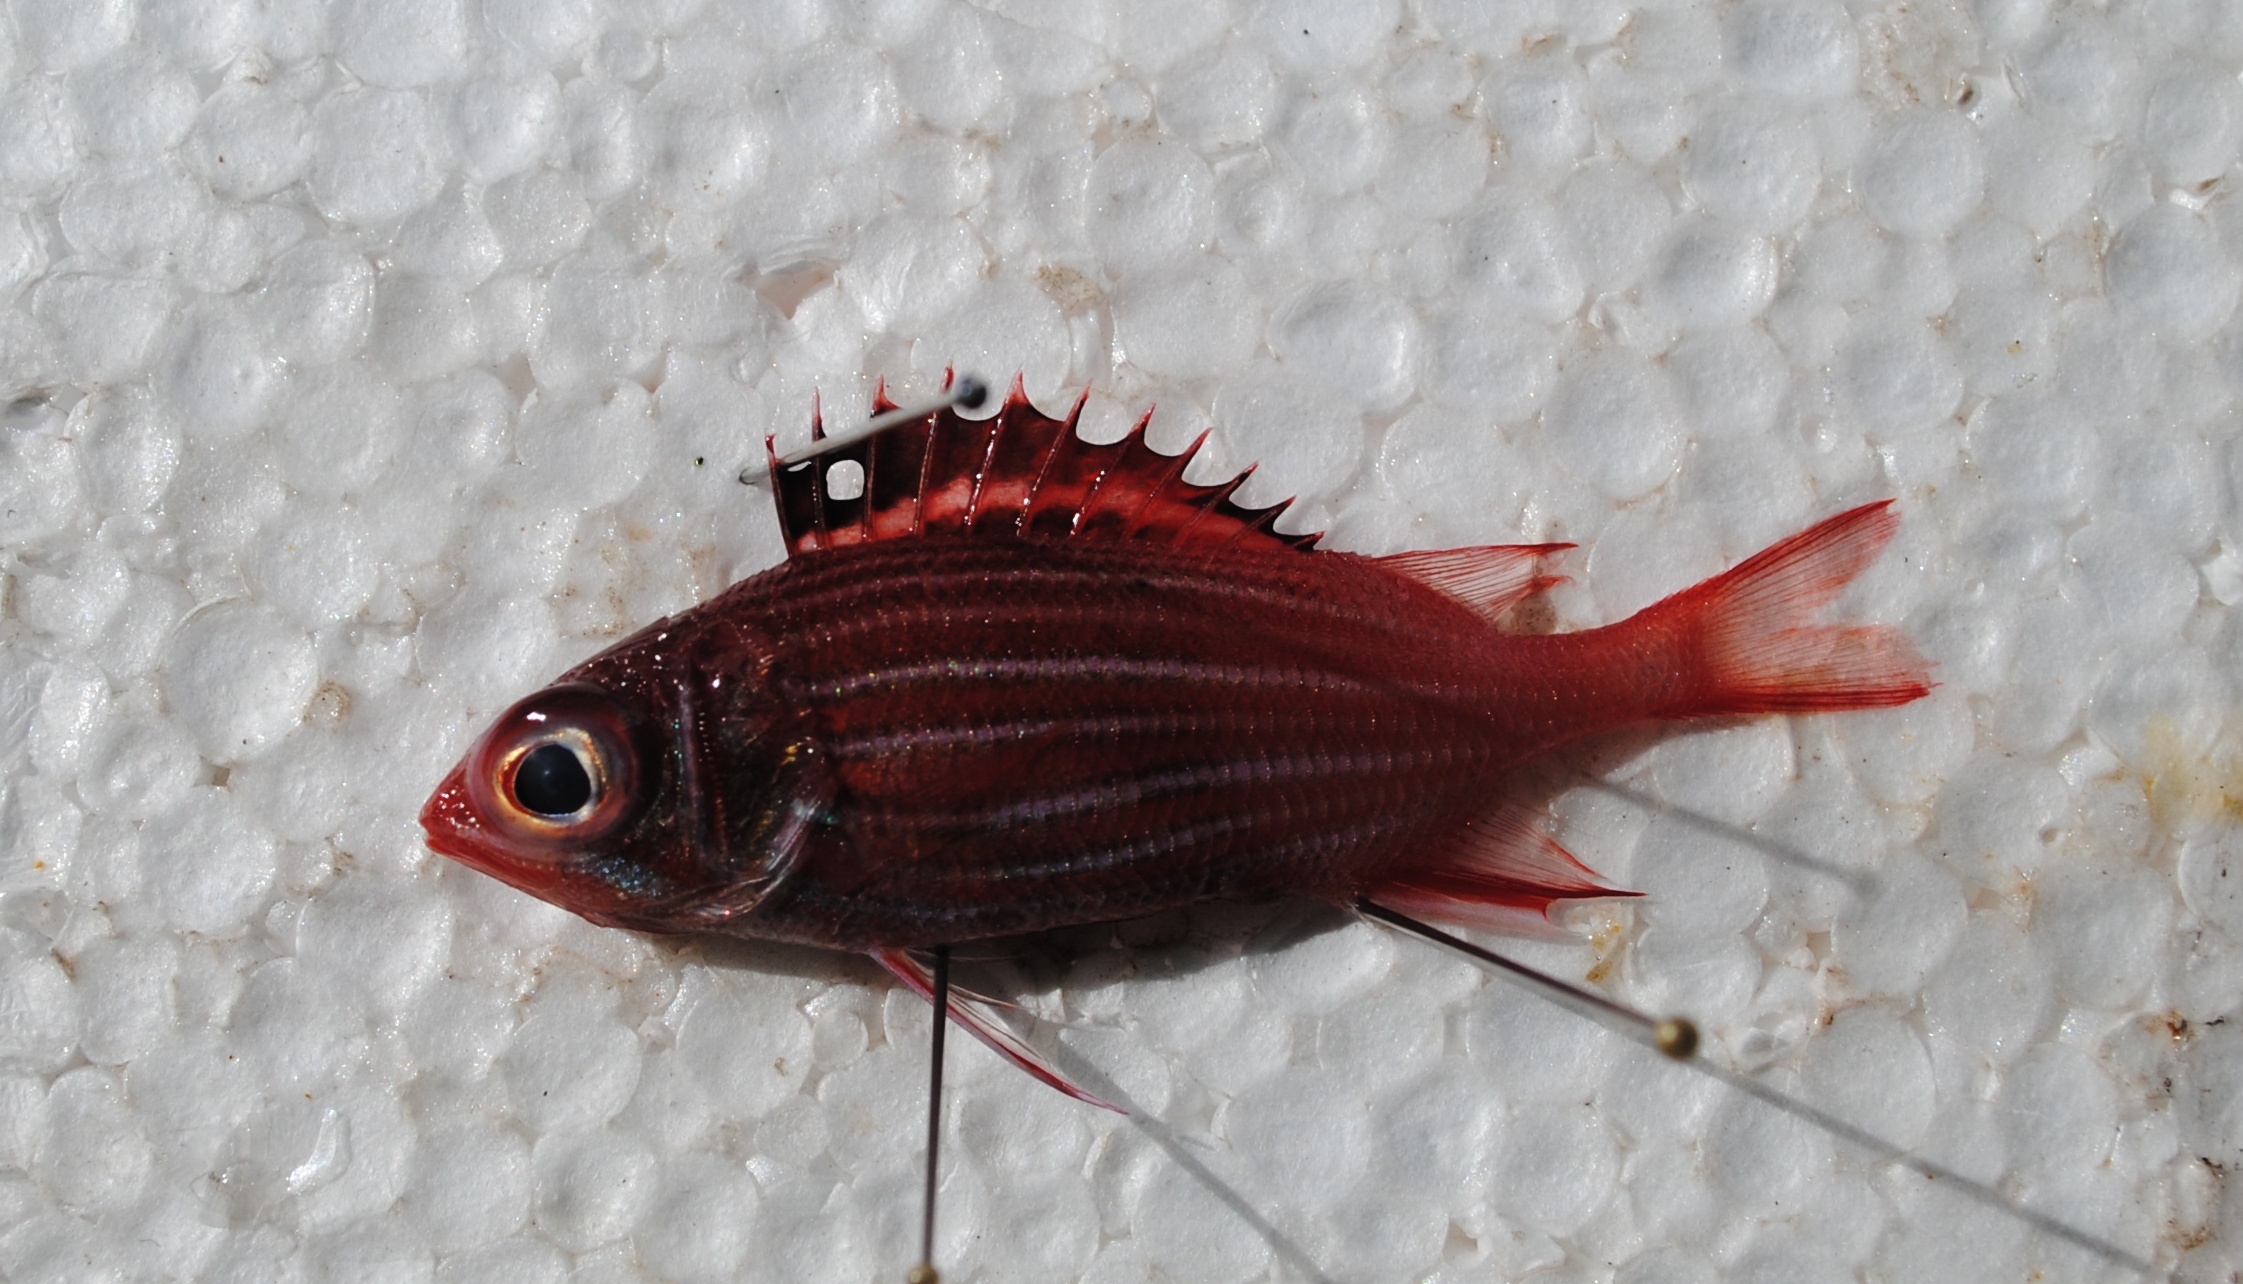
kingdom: Animalia
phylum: Chordata
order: Beryciformes
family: Holocentridae
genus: Sargocentron
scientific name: Sargocentron diadema
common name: Crown squirrelfish
